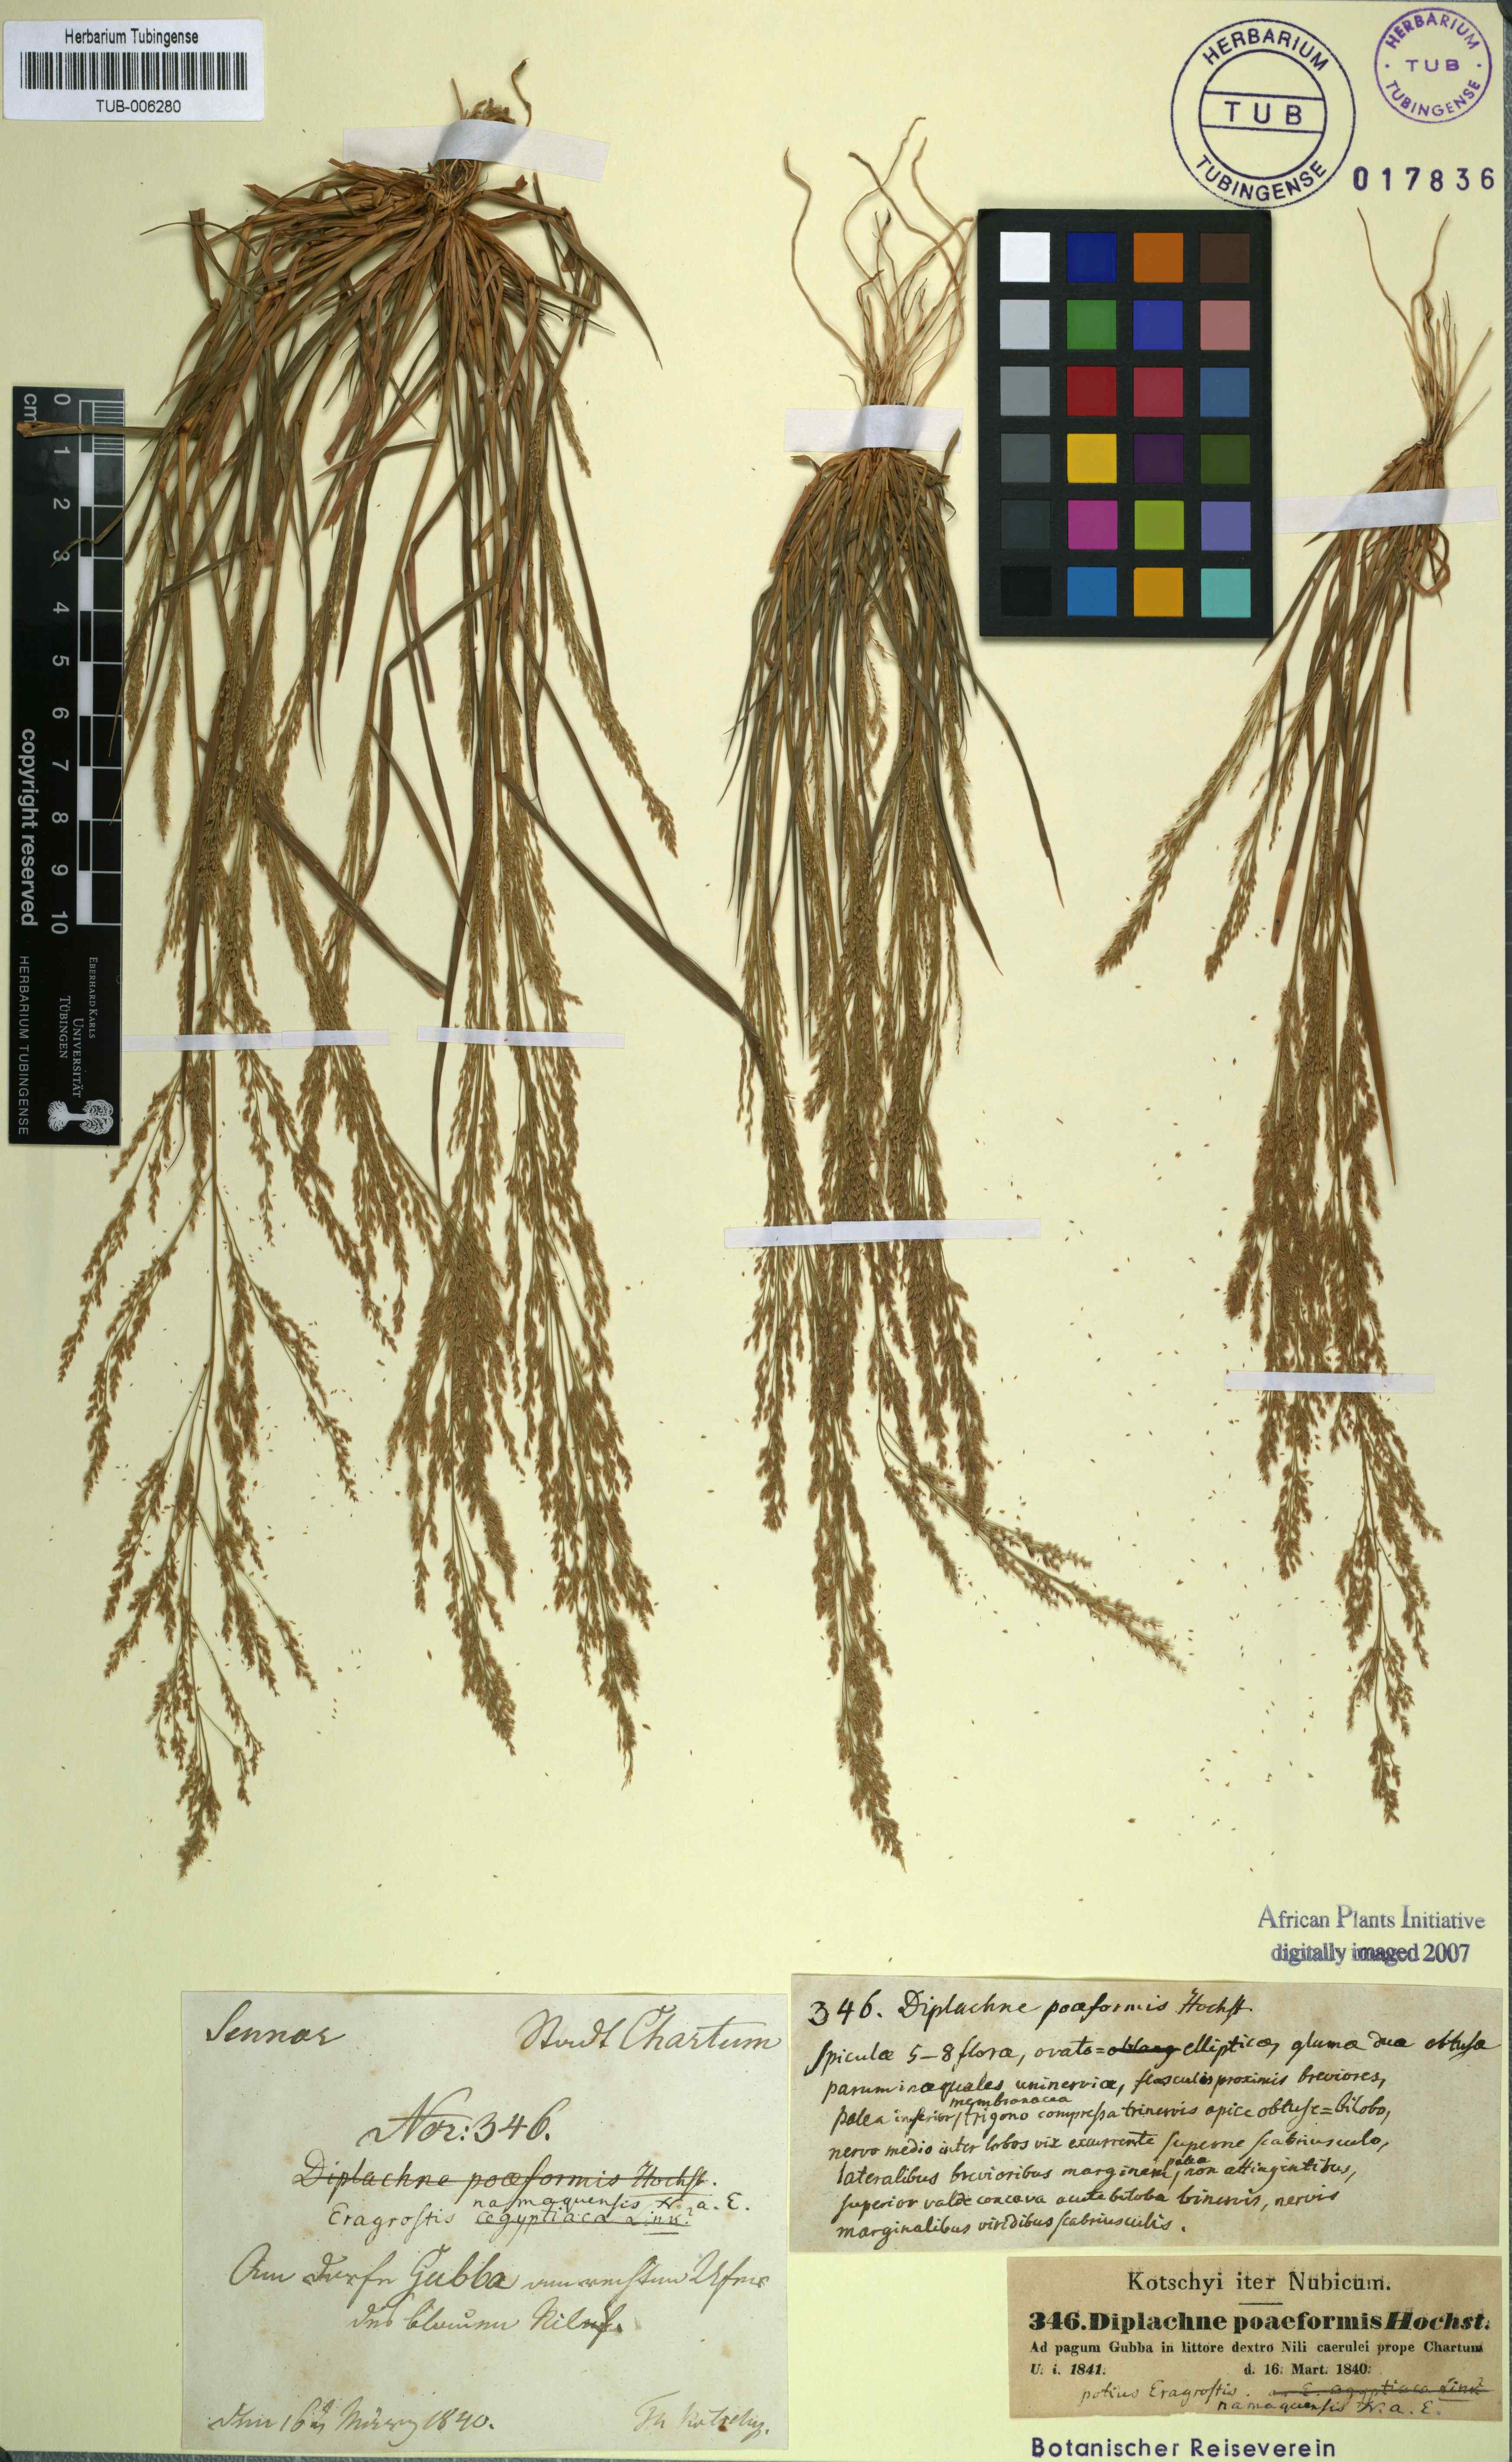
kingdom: Plantae
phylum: Tracheophyta
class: Liliopsida
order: Poales
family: Poaceae
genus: Eragrostis
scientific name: Eragrostis interrupta
